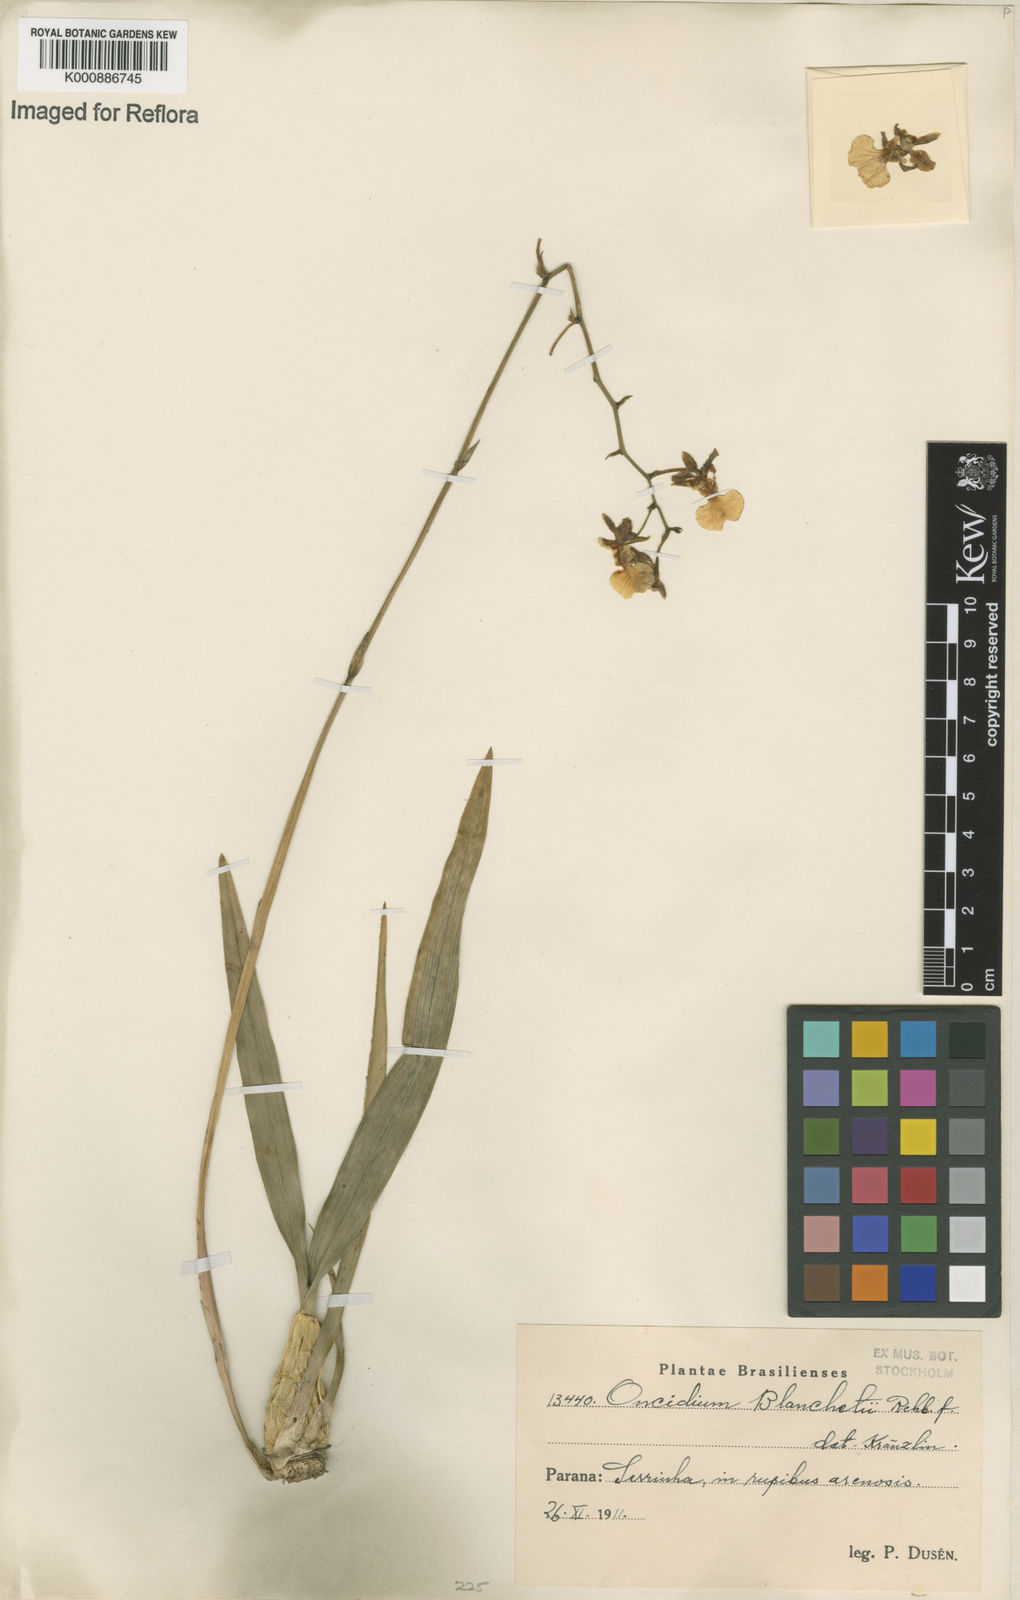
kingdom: Plantae
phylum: Tracheophyta
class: Liliopsida
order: Asparagales
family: Orchidaceae
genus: Gomesa
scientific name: Gomesa barbaceniae
